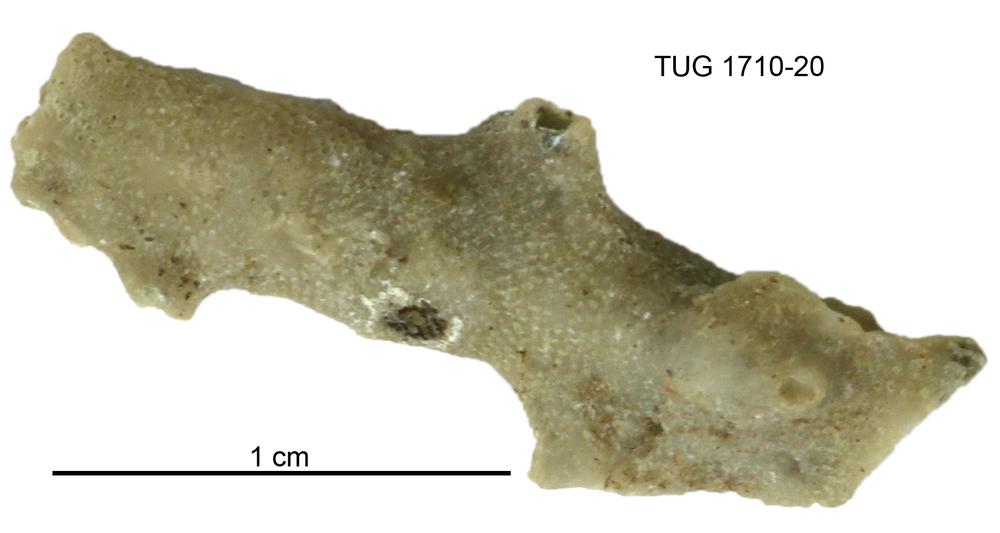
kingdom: Animalia
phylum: Bryozoa
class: Stenolaemata
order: Cystoporida
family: Fistuliporidae
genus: Fistulipora
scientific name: Fistulipora przhidolensis
